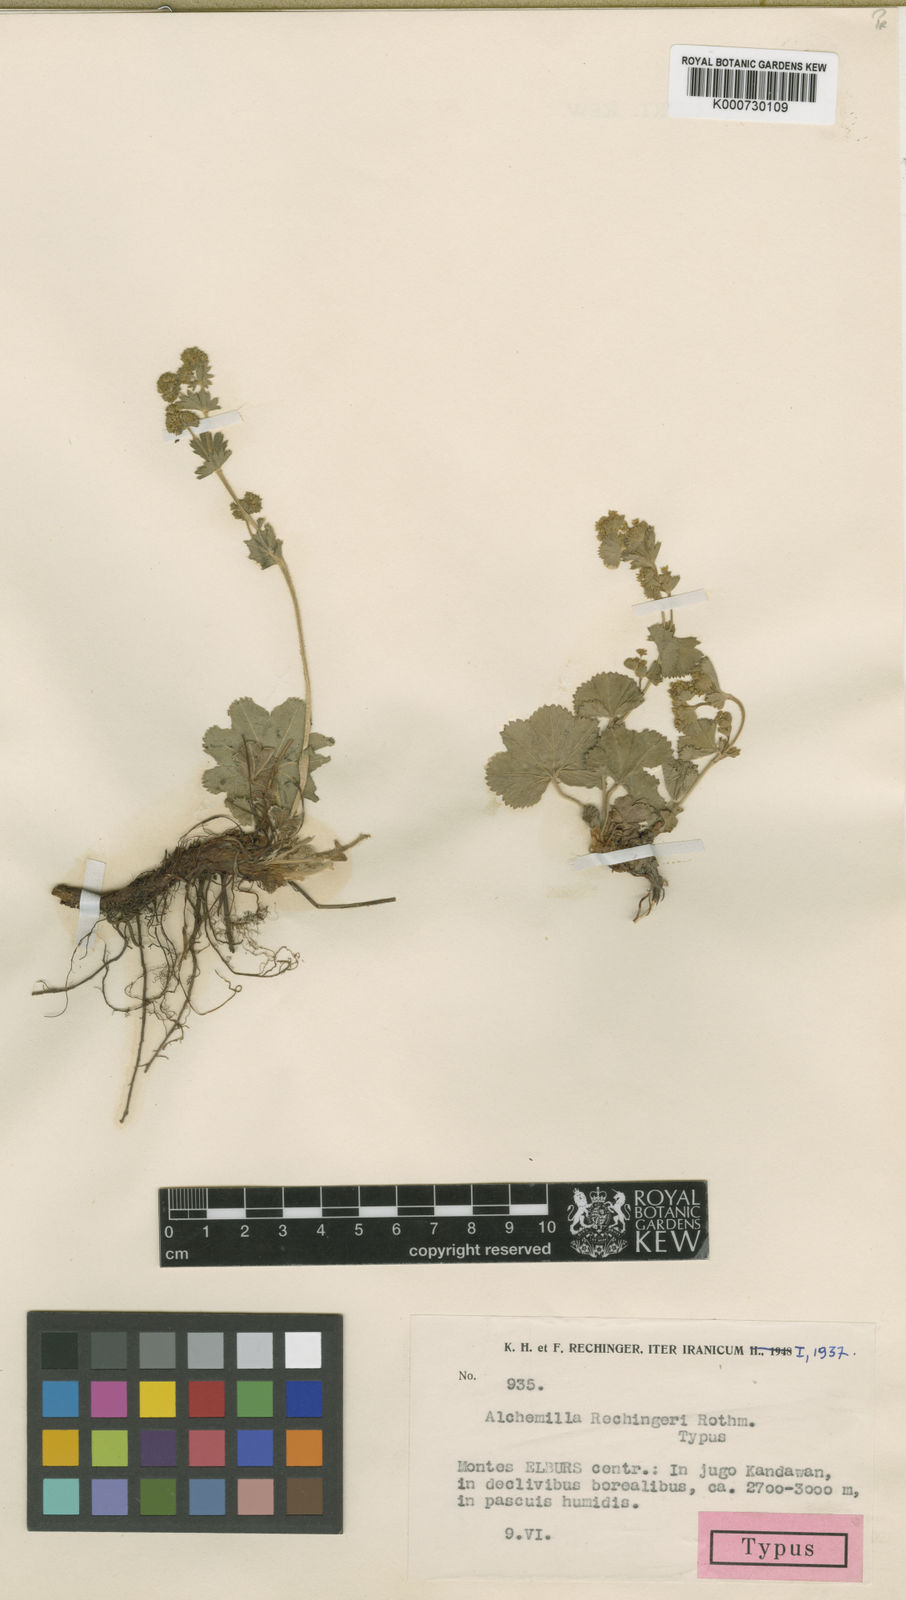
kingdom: Plantae
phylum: Tracheophyta
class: Magnoliopsida
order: Rosales
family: Rosaceae
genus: Alchemilla
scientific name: Alchemilla compactilis
